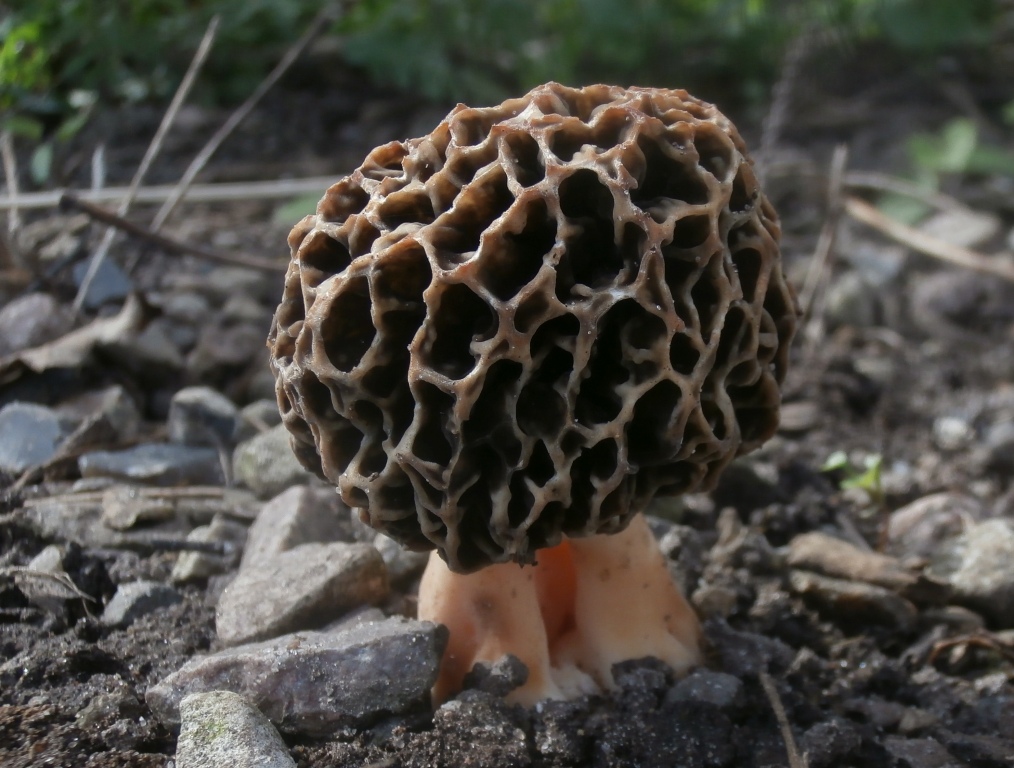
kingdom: Fungi
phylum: Ascomycota
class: Pezizomycetes
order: Pezizales
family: Morchellaceae
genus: Morchella
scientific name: Morchella esculenta
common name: spiselig morkel
